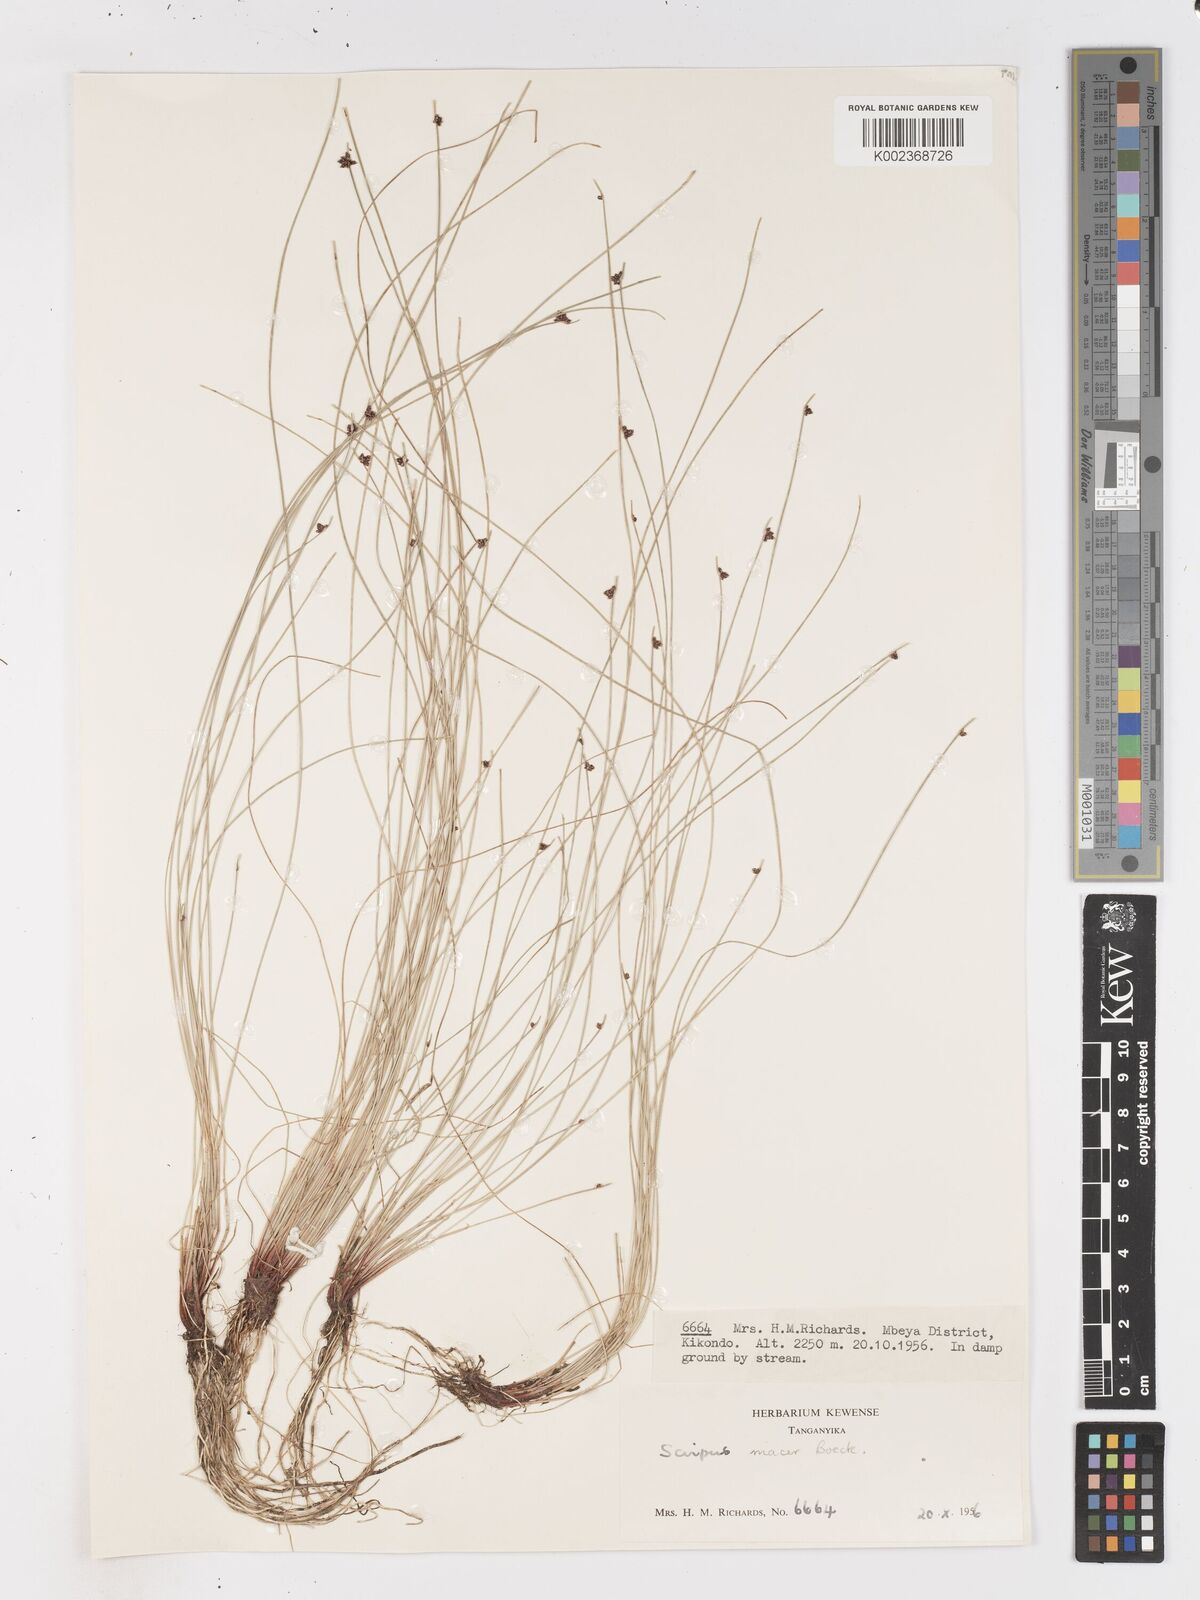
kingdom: Plantae
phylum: Tracheophyta
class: Liliopsida
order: Poales
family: Cyperaceae
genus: Isolepis
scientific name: Isolepis costata
